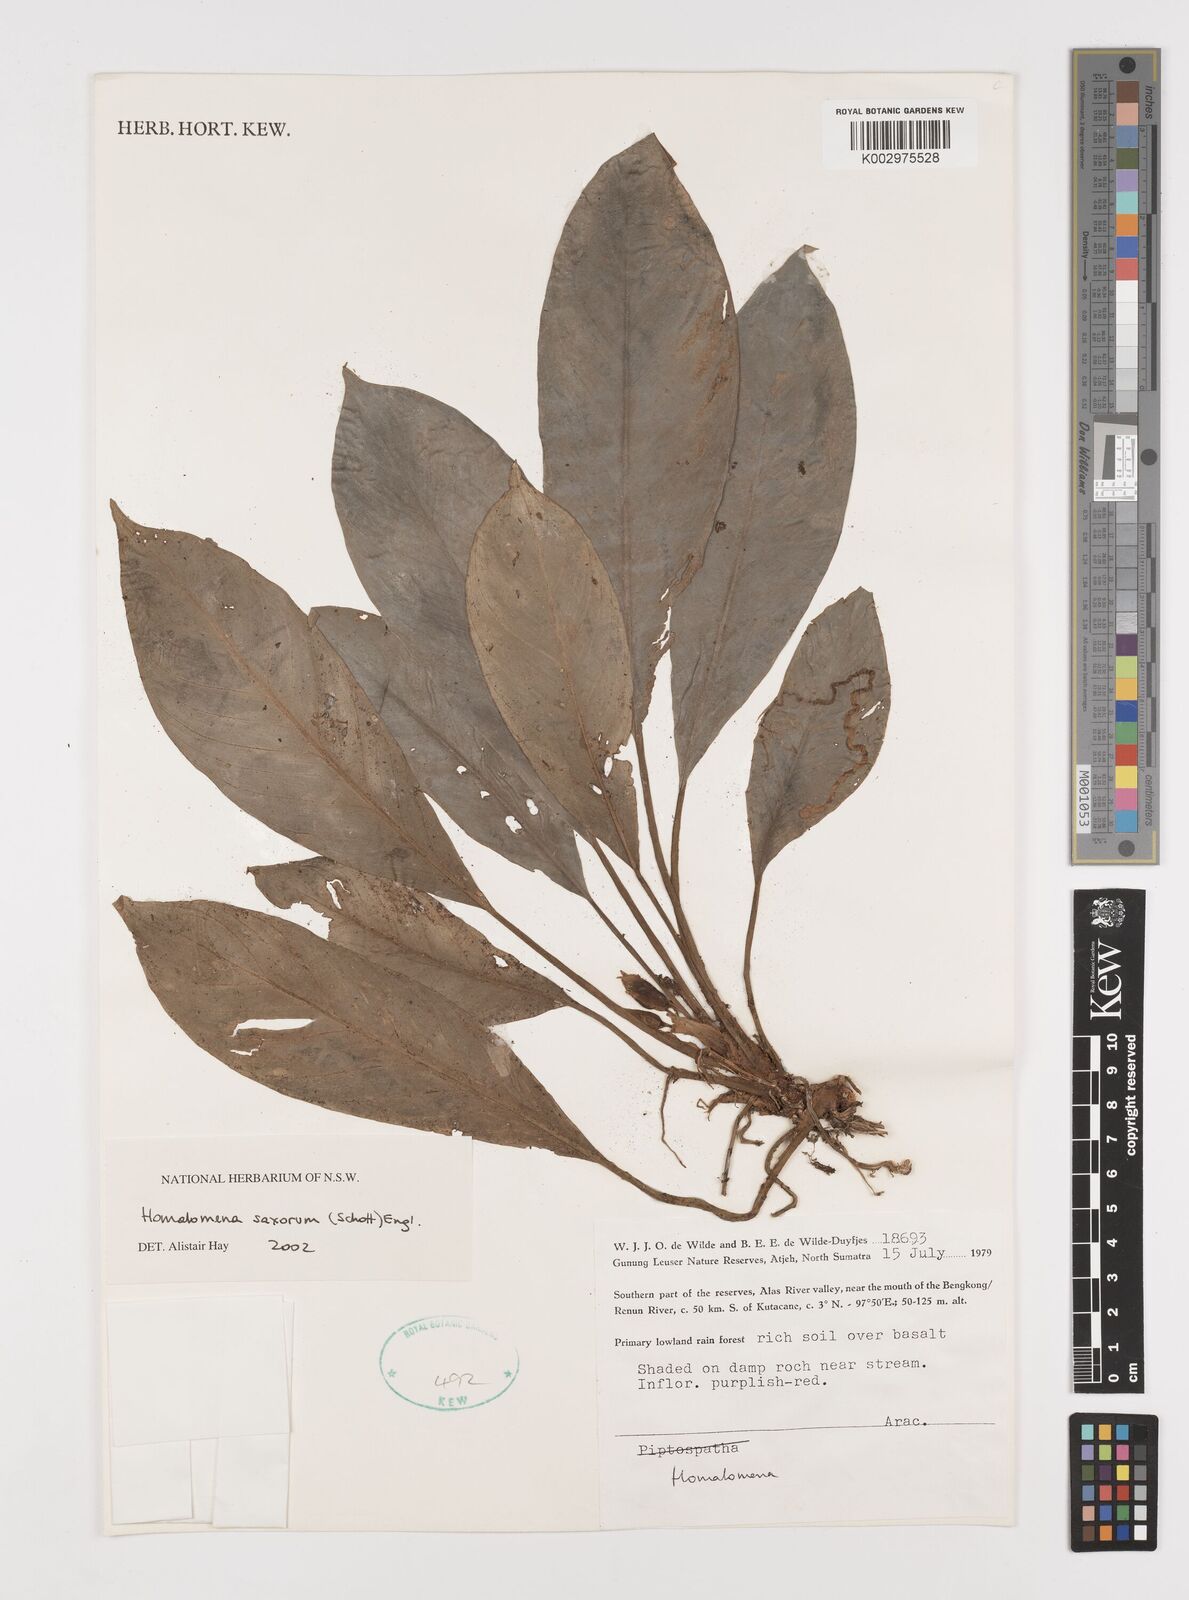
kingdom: Plantae
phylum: Tracheophyta
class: Liliopsida
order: Alismatales
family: Araceae
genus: Homalomena
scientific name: Homalomena saxorum
